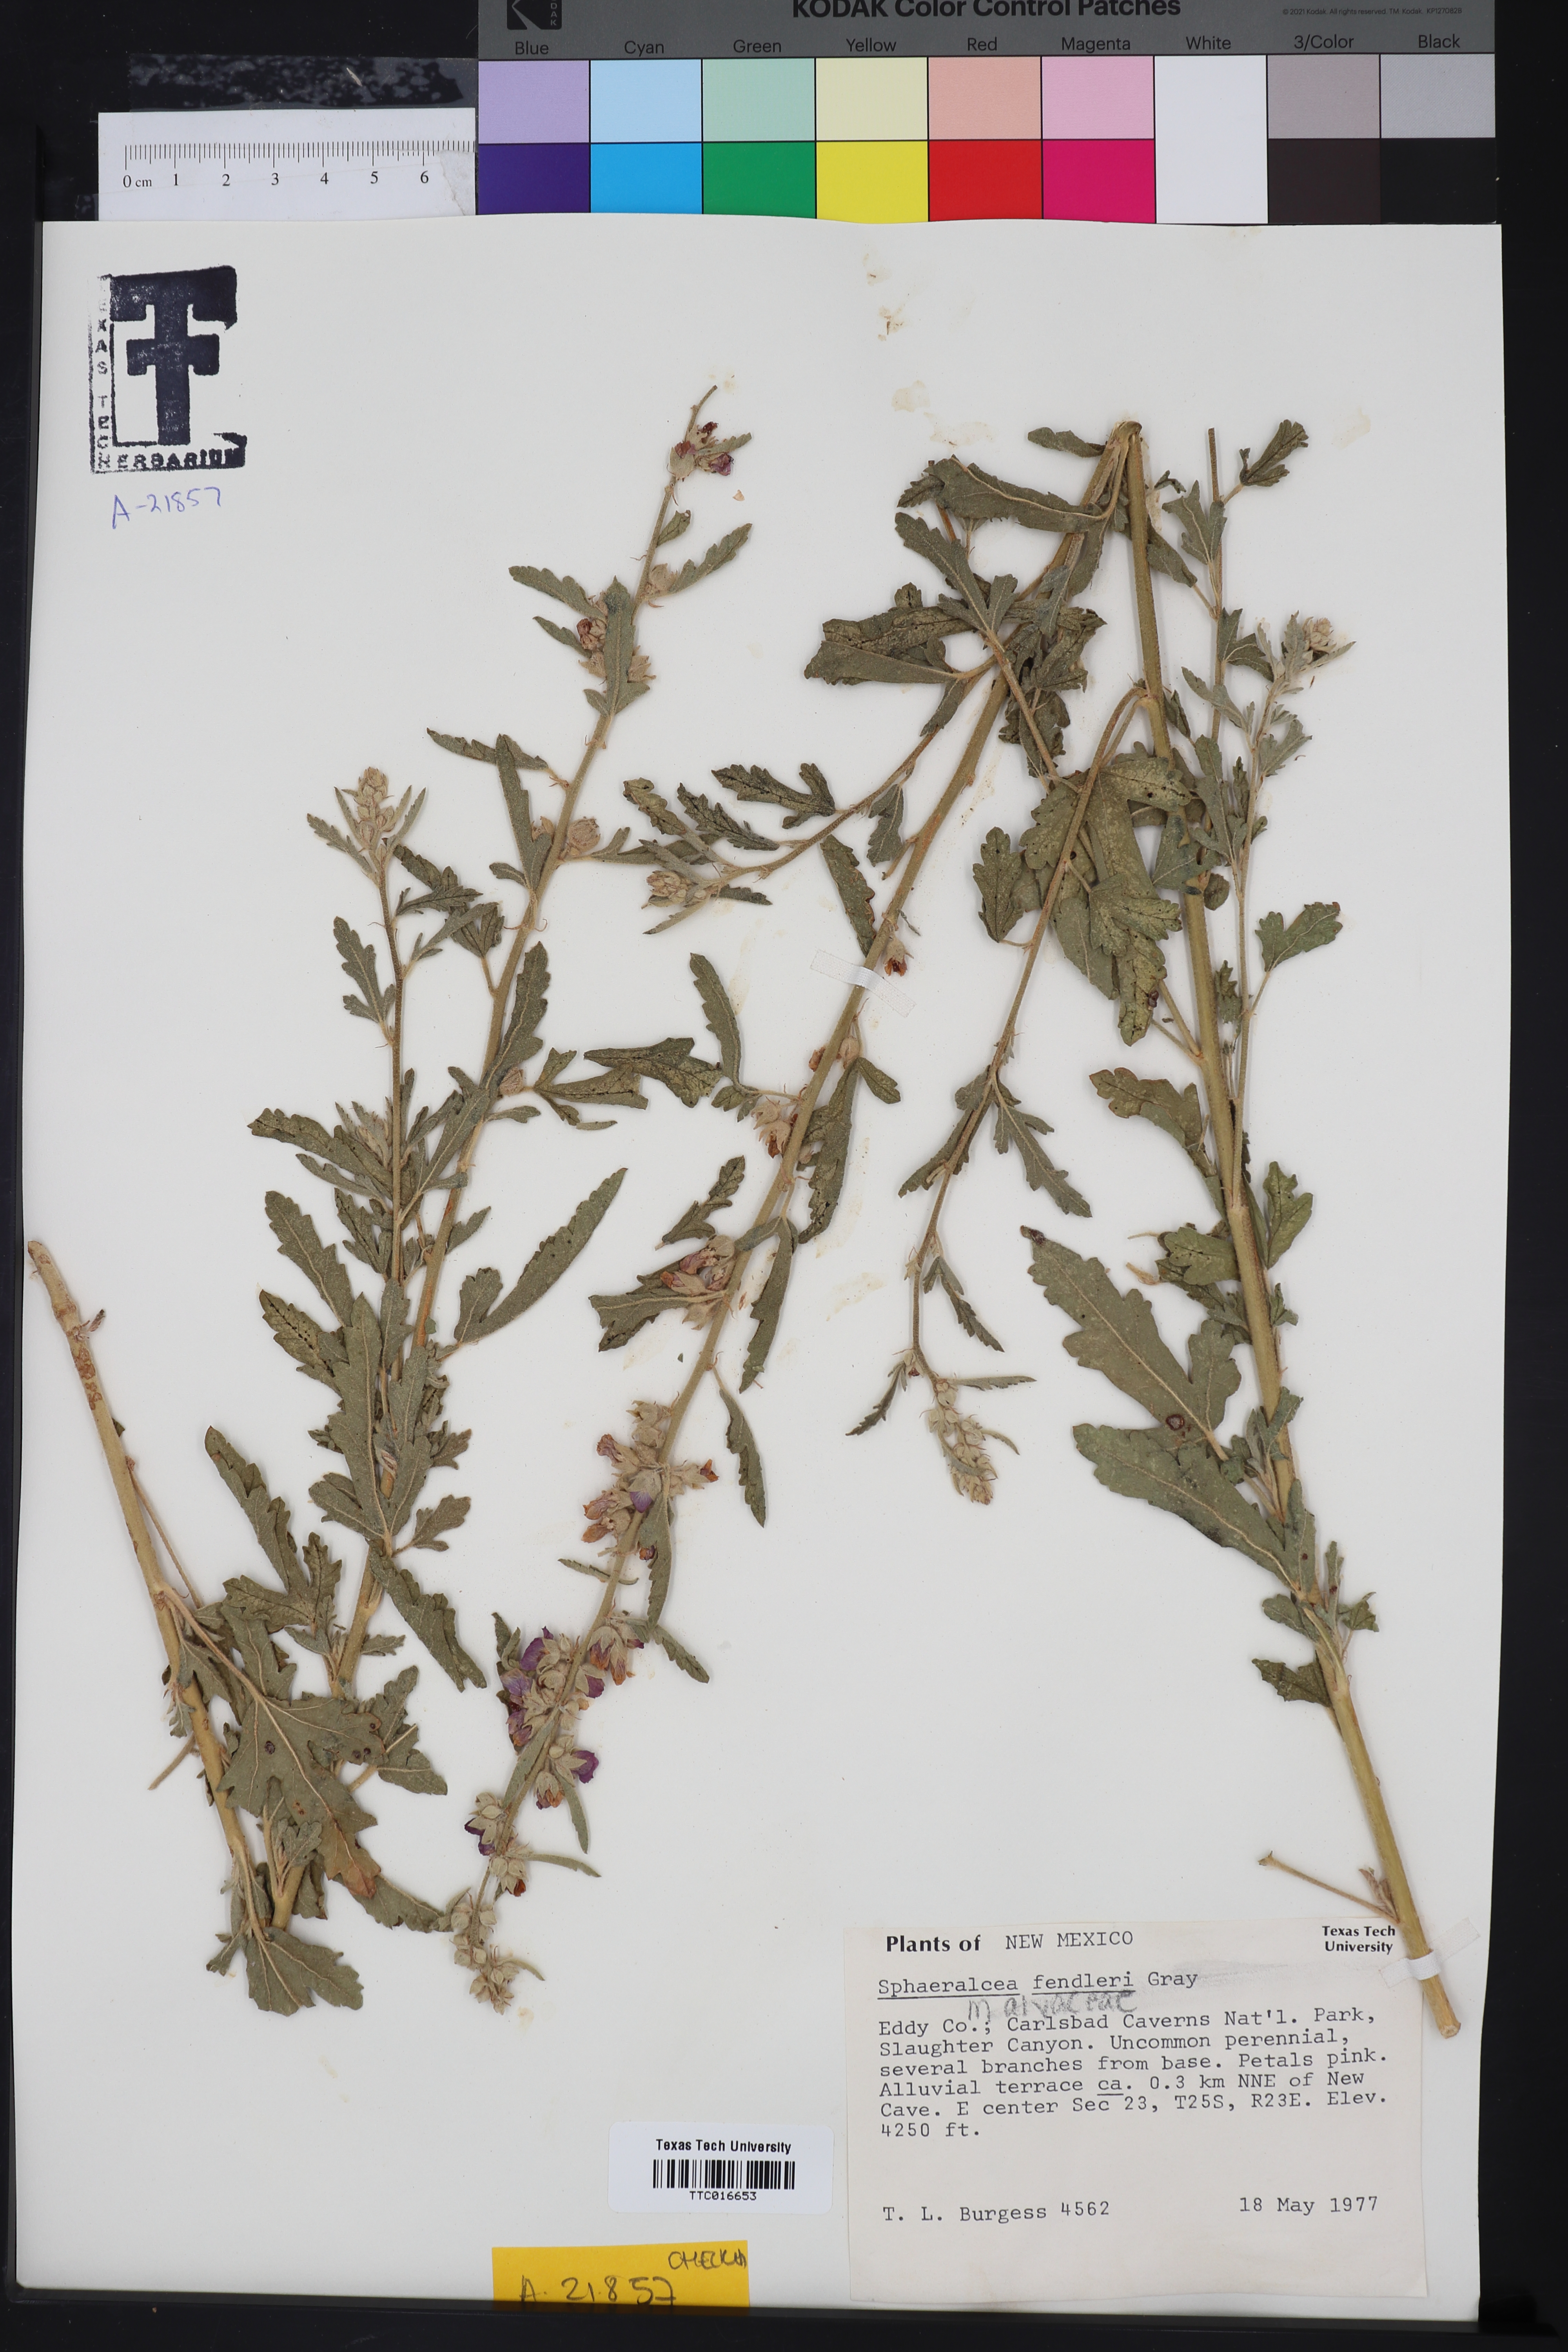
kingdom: Plantae
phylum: Tracheophyta
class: Magnoliopsida
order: Malvales
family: Malvaceae
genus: Sphaeralcea
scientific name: Sphaeralcea fendleri
